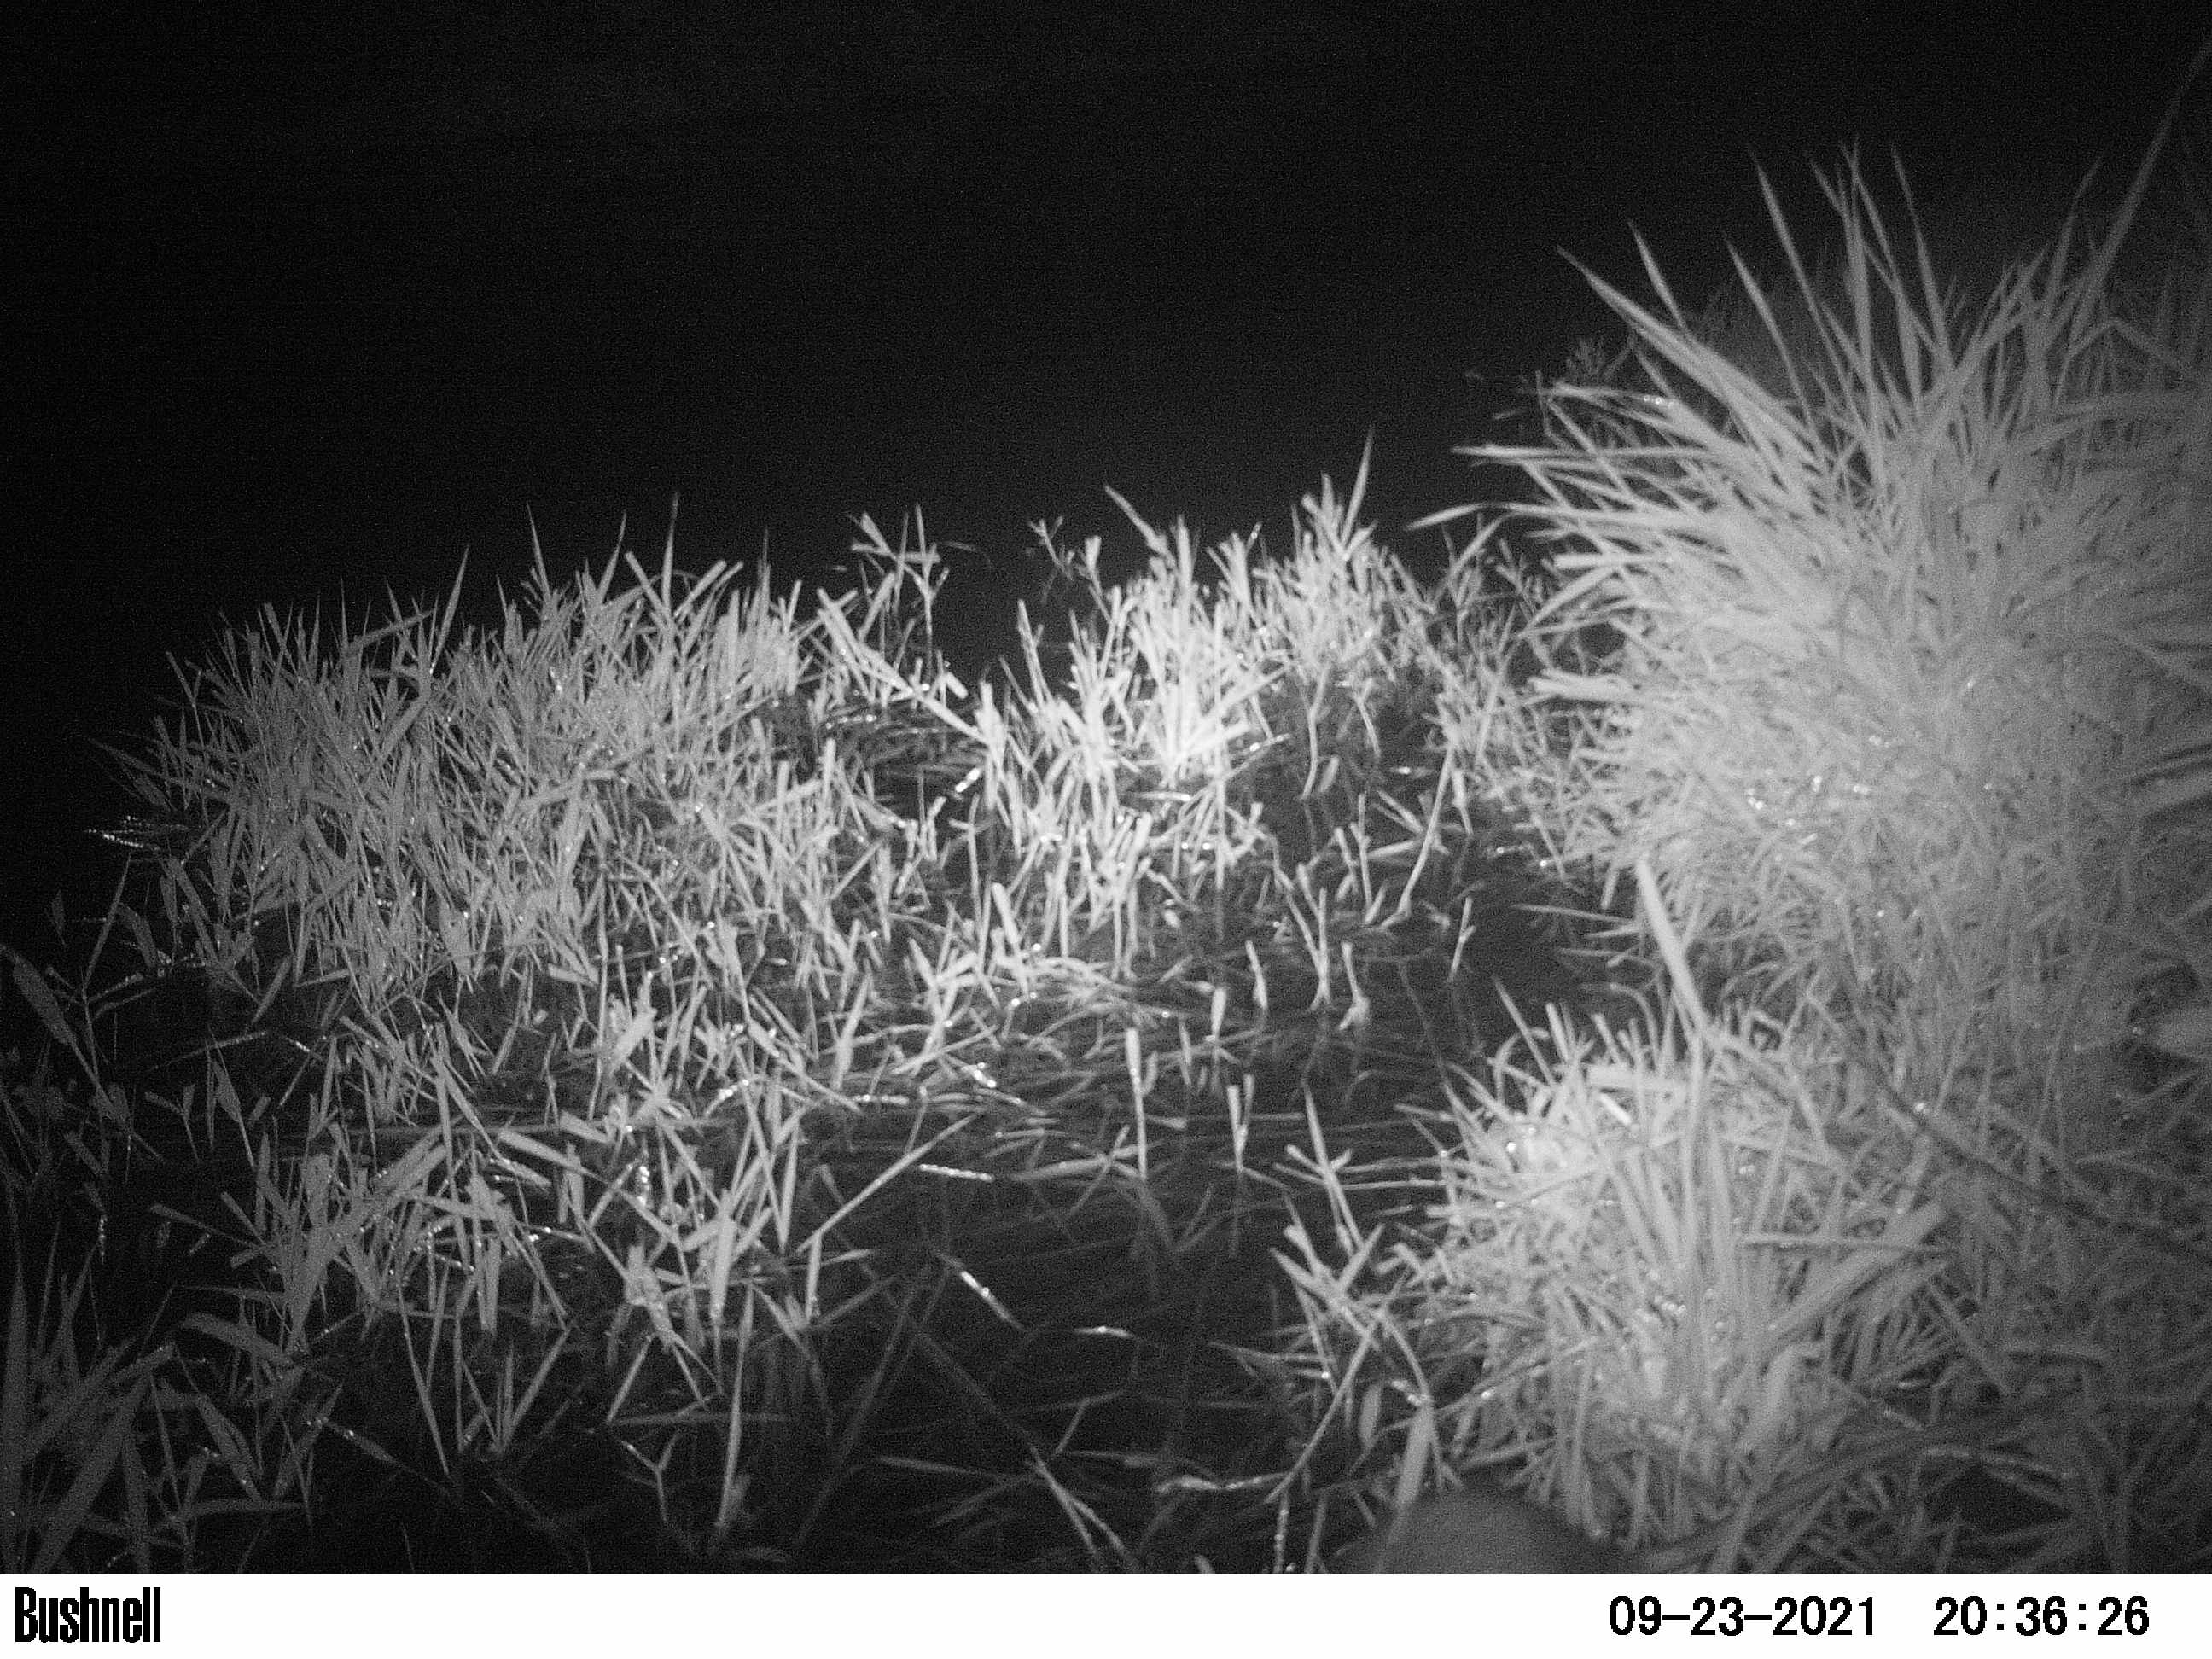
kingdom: Animalia
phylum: Chordata
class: Mammalia
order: Rodentia
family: Muridae
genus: Rattus
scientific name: Rattus norvegicus
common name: Brown rat
